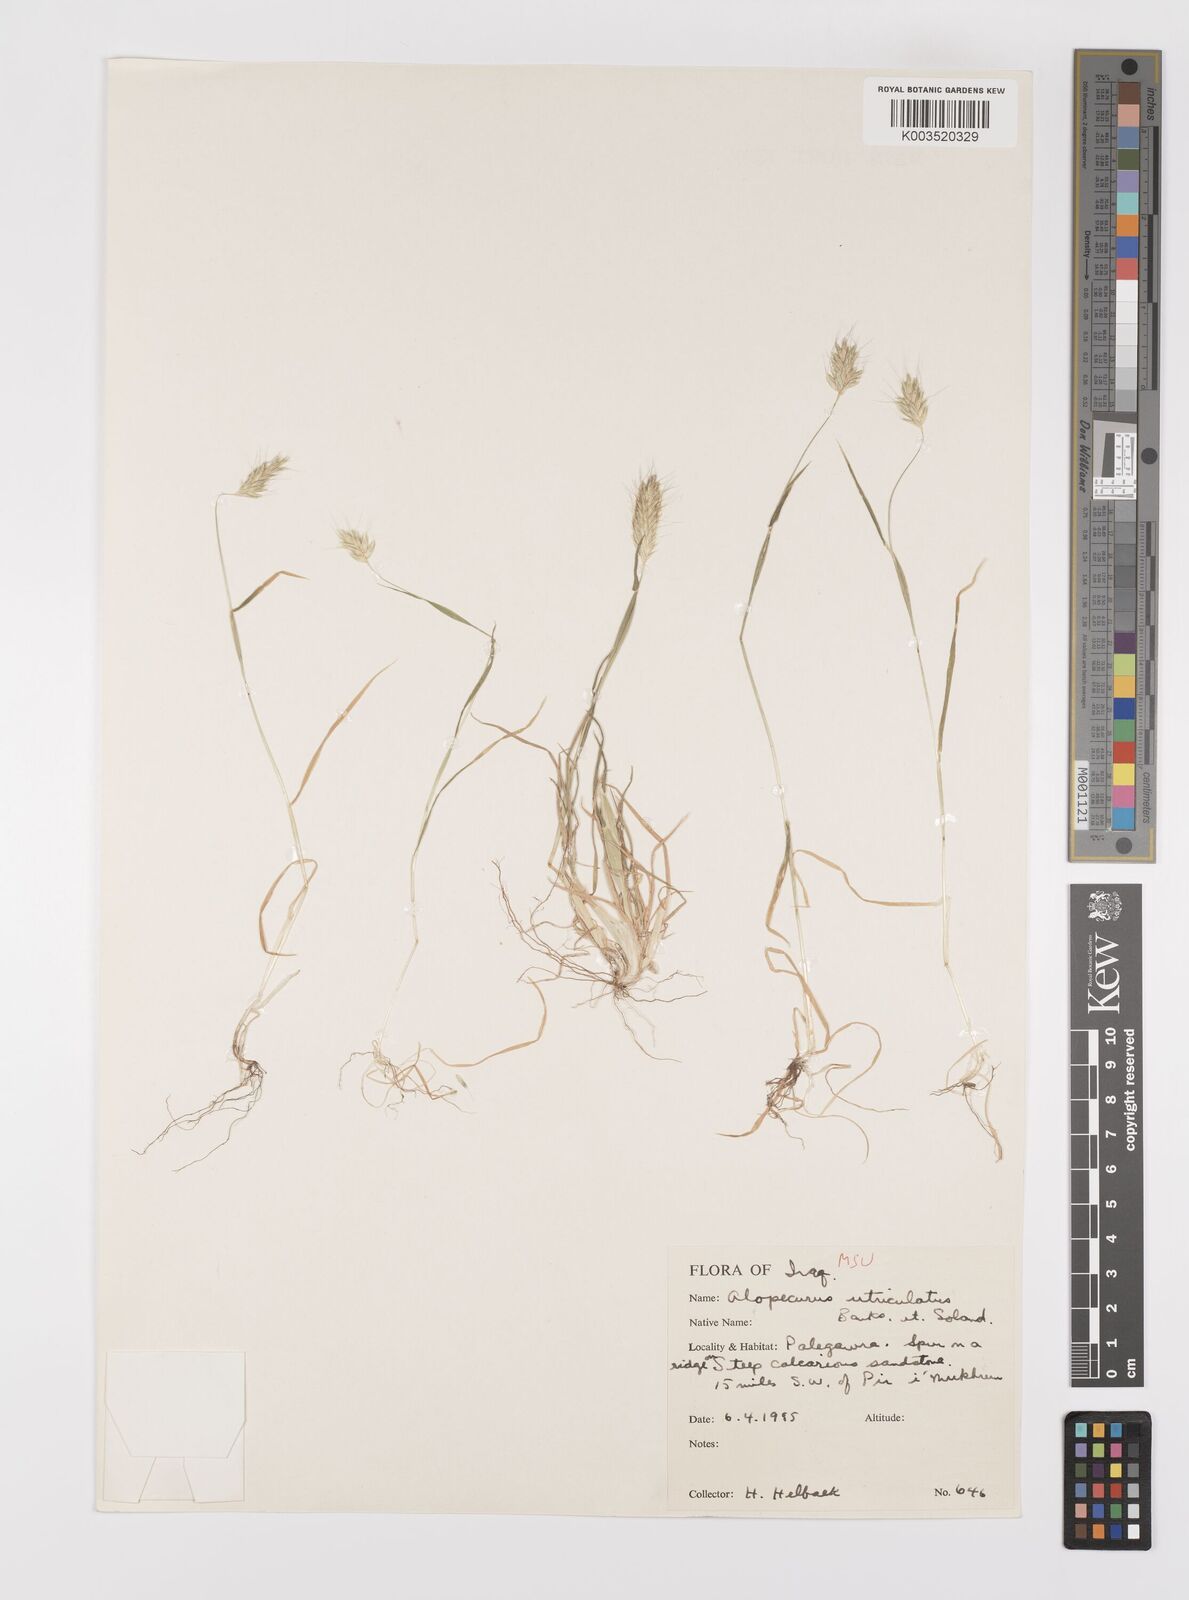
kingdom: Plantae
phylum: Tracheophyta
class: Liliopsida
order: Poales
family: Poaceae
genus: Alopecurus
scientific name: Alopecurus utriculatus
